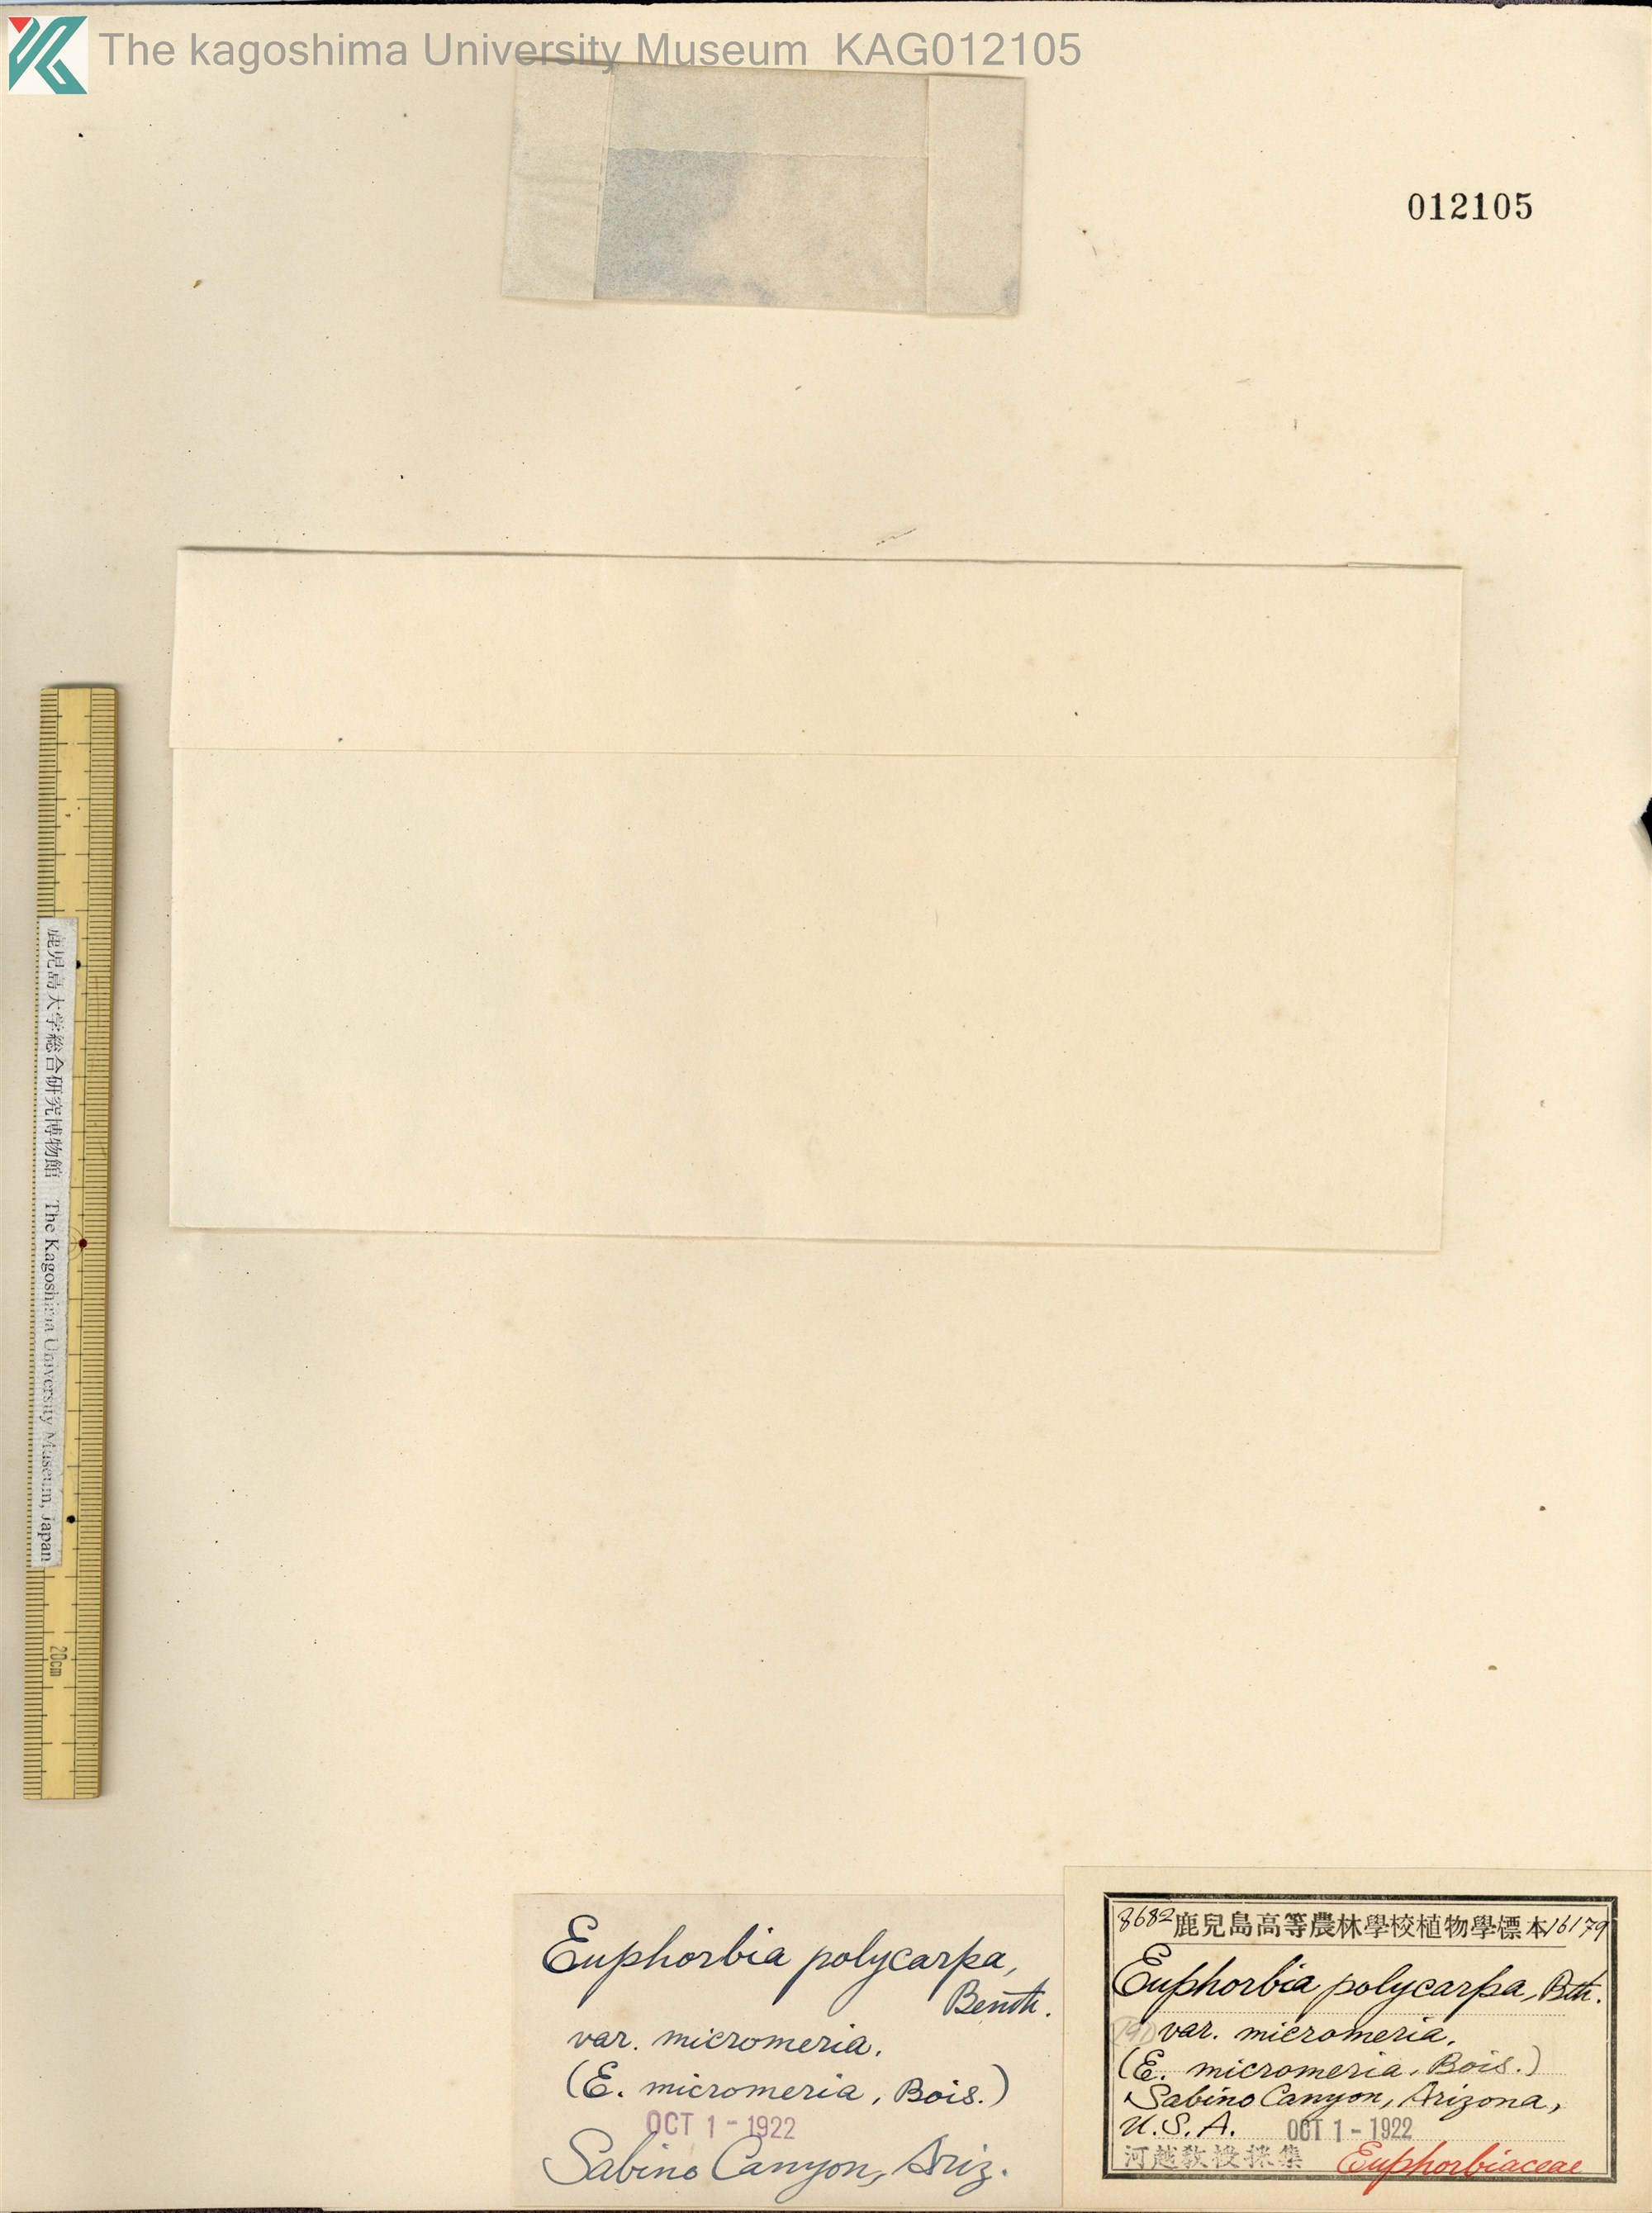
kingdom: Plantae
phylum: Tracheophyta
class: Magnoliopsida
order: Malpighiales
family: Euphorbiaceae
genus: Euphorbia
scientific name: Euphorbia polycarpa
